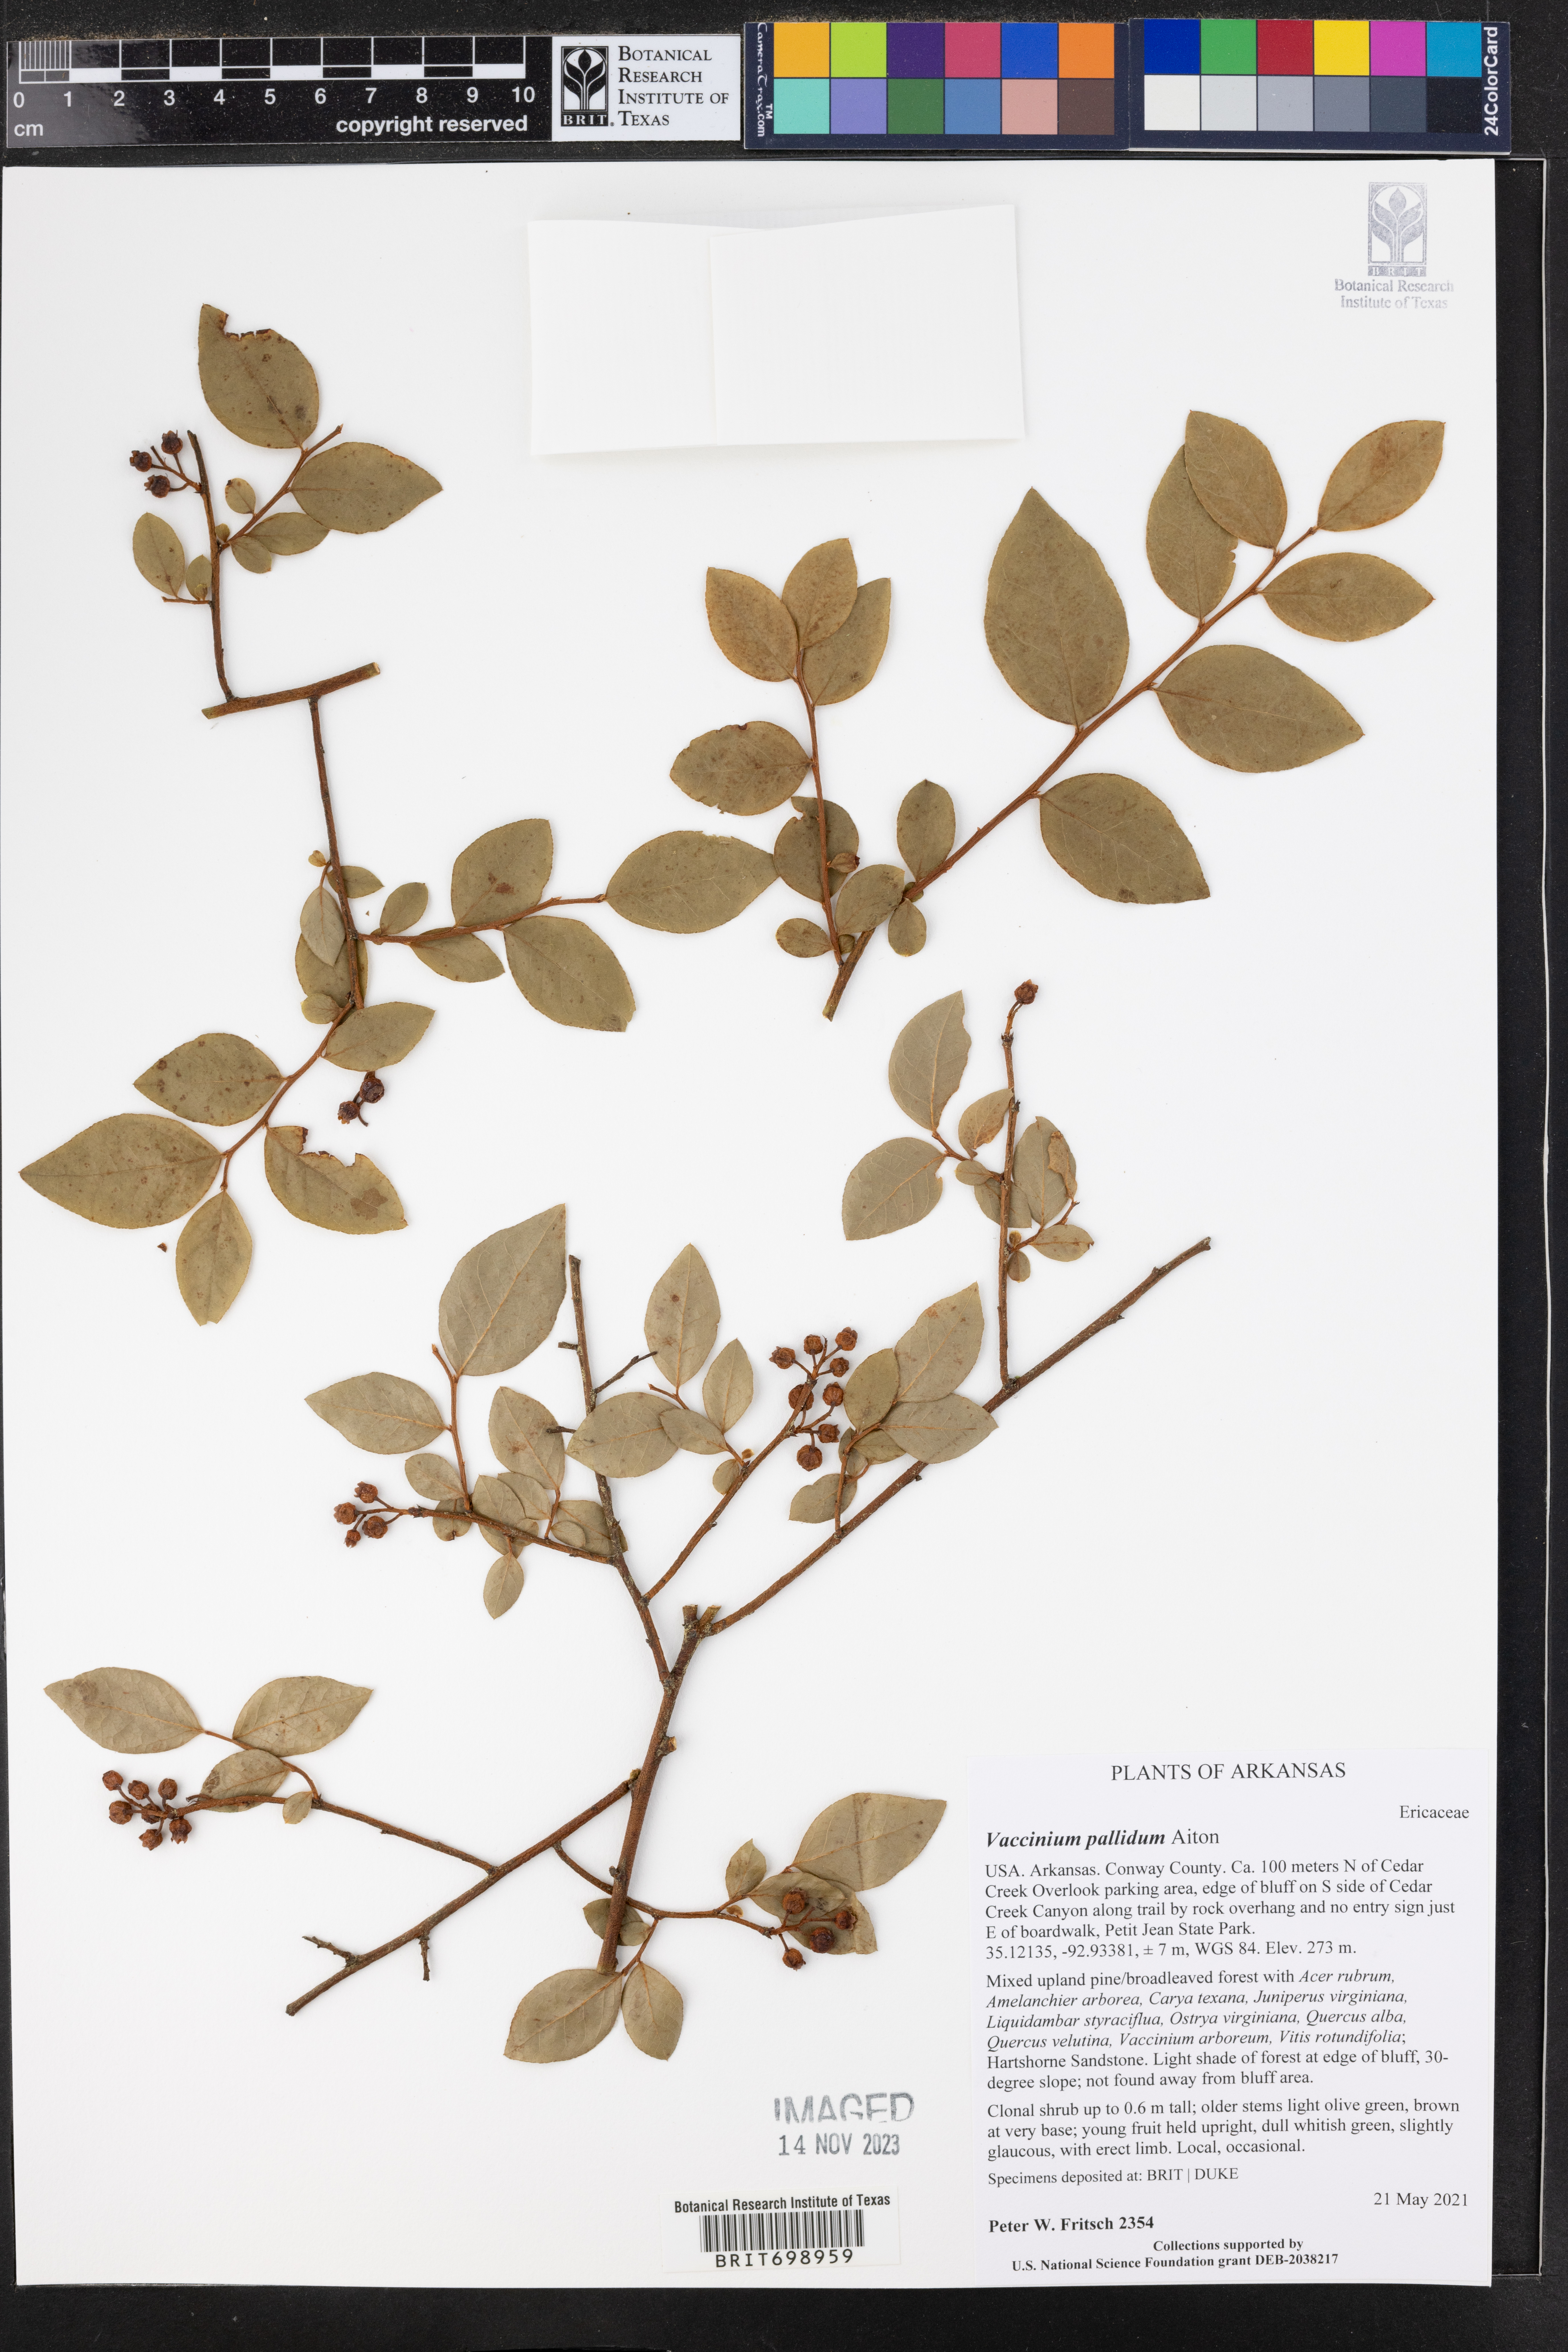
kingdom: Plantae
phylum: Tracheophyta
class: Magnoliopsida
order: Ericales
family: Ericaceae
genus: Vaccinium
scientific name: Vaccinium pallidum
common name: Blue ridge blueberry
